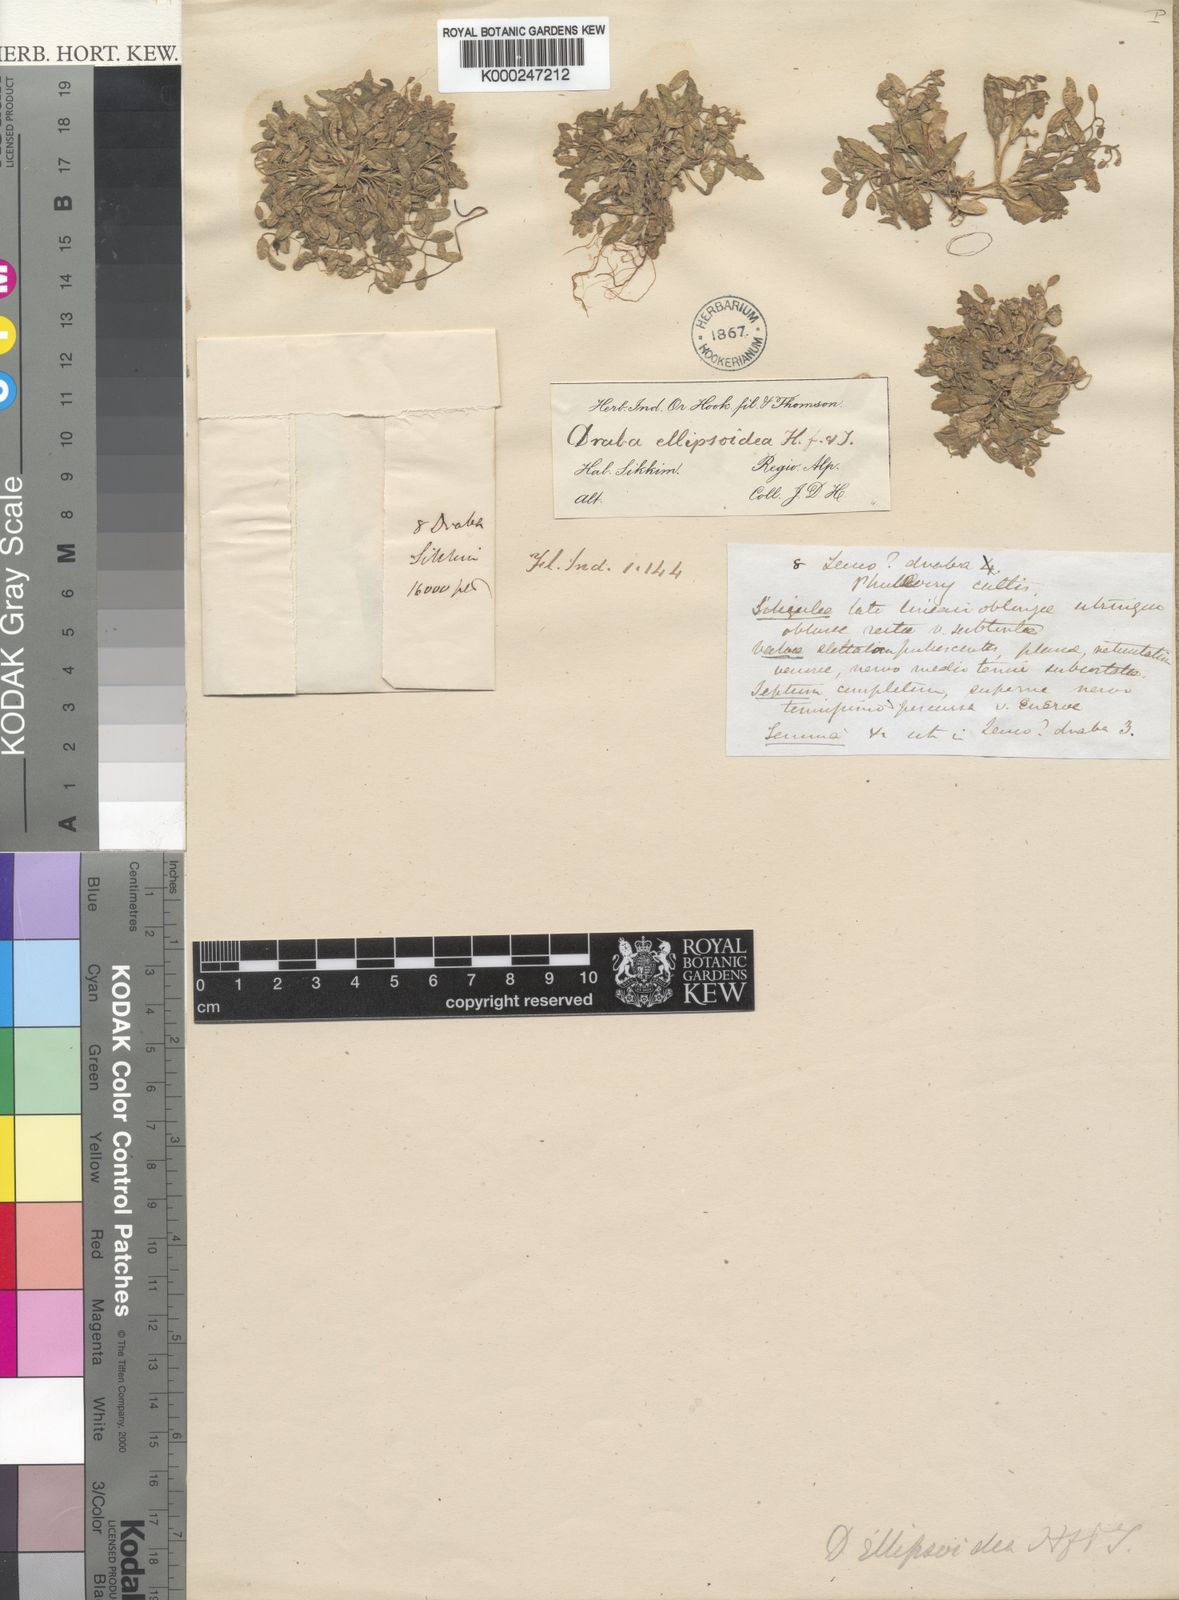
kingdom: Plantae
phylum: Tracheophyta
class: Magnoliopsida
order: Brassicales
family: Brassicaceae
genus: Draba
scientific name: Draba ellipsoidea
